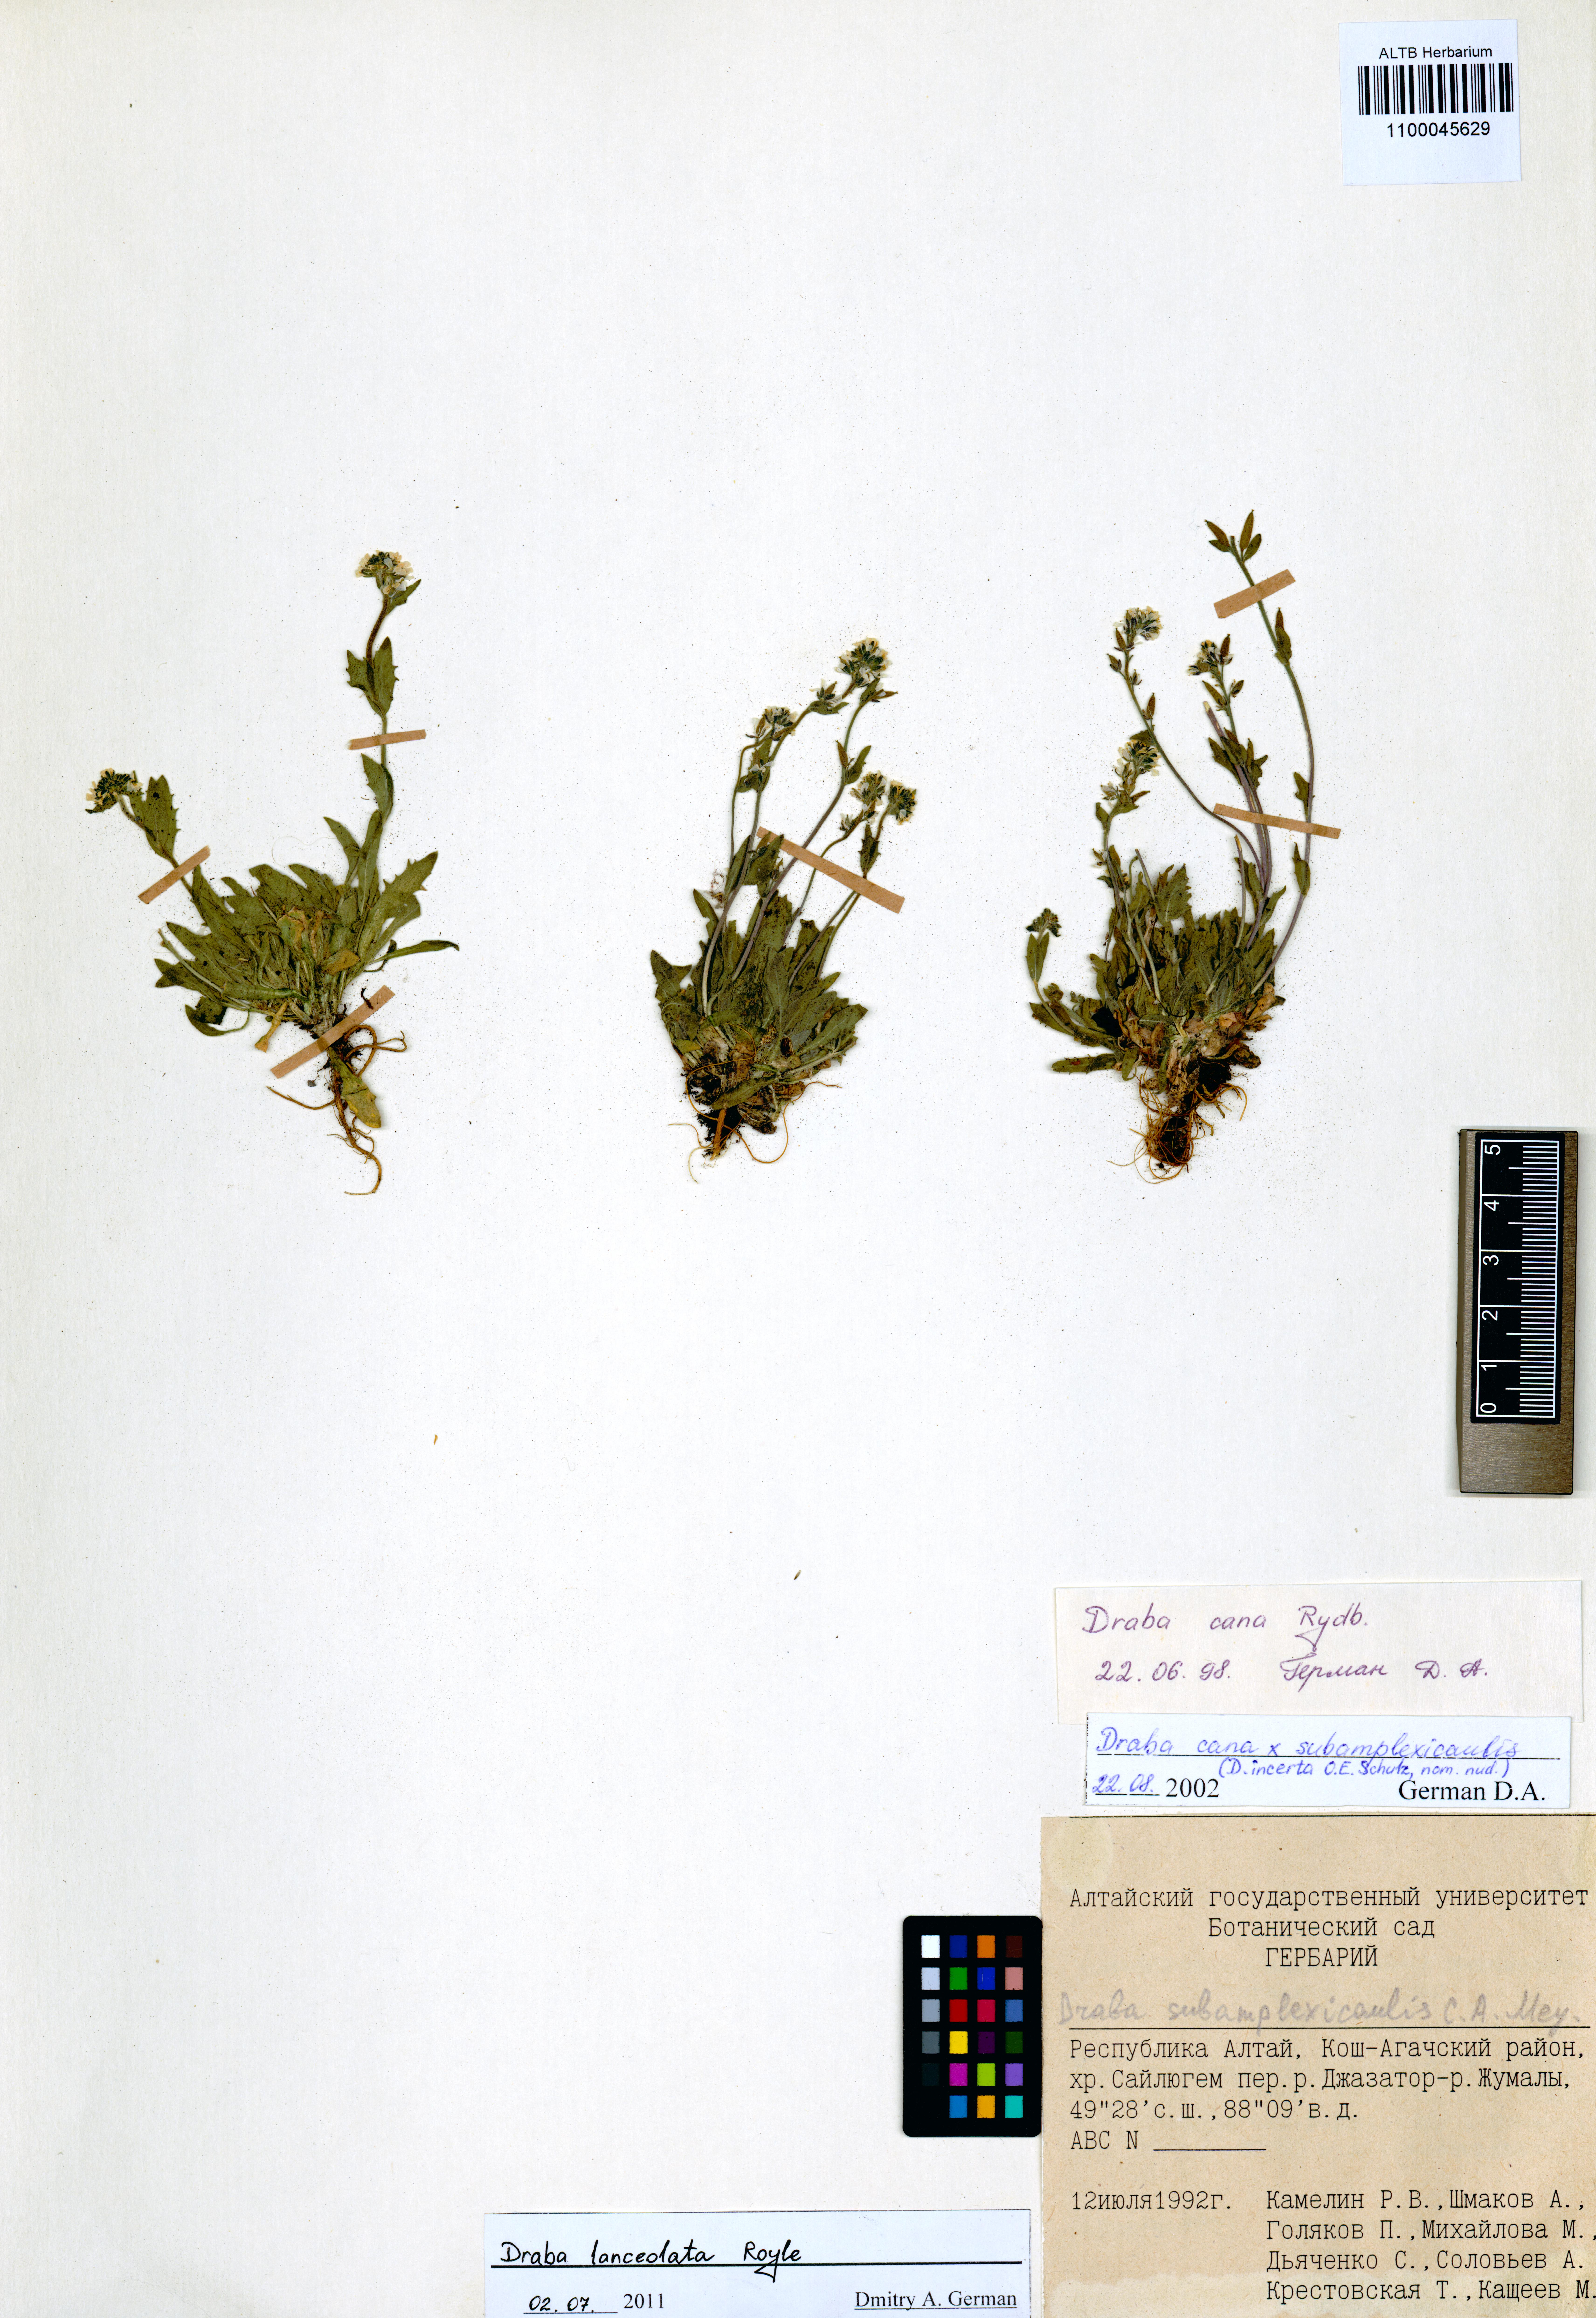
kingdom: Plantae
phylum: Tracheophyta
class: Magnoliopsida
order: Brassicales
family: Brassicaceae
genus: Draba
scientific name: Draba lanceolata
